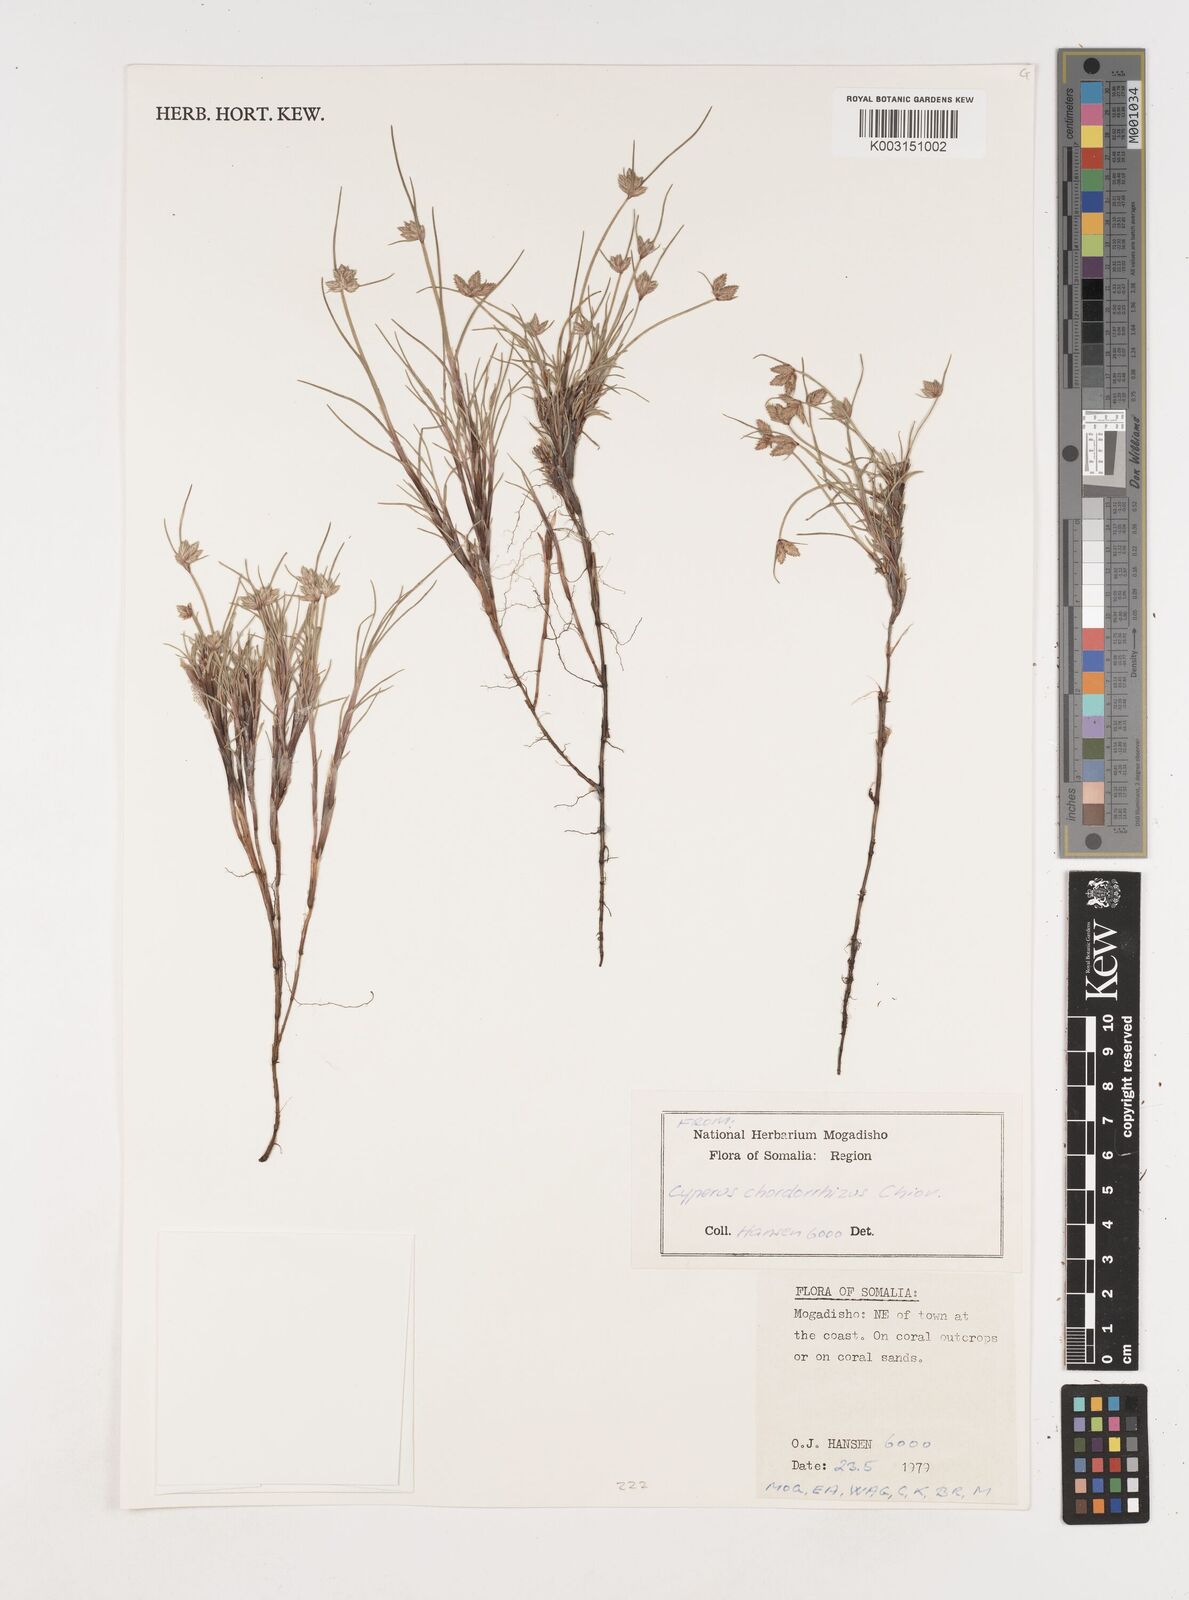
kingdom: Plantae
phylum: Tracheophyta
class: Liliopsida
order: Poales
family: Cyperaceae
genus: Cyperus
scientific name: Cyperus chordorrhizus
